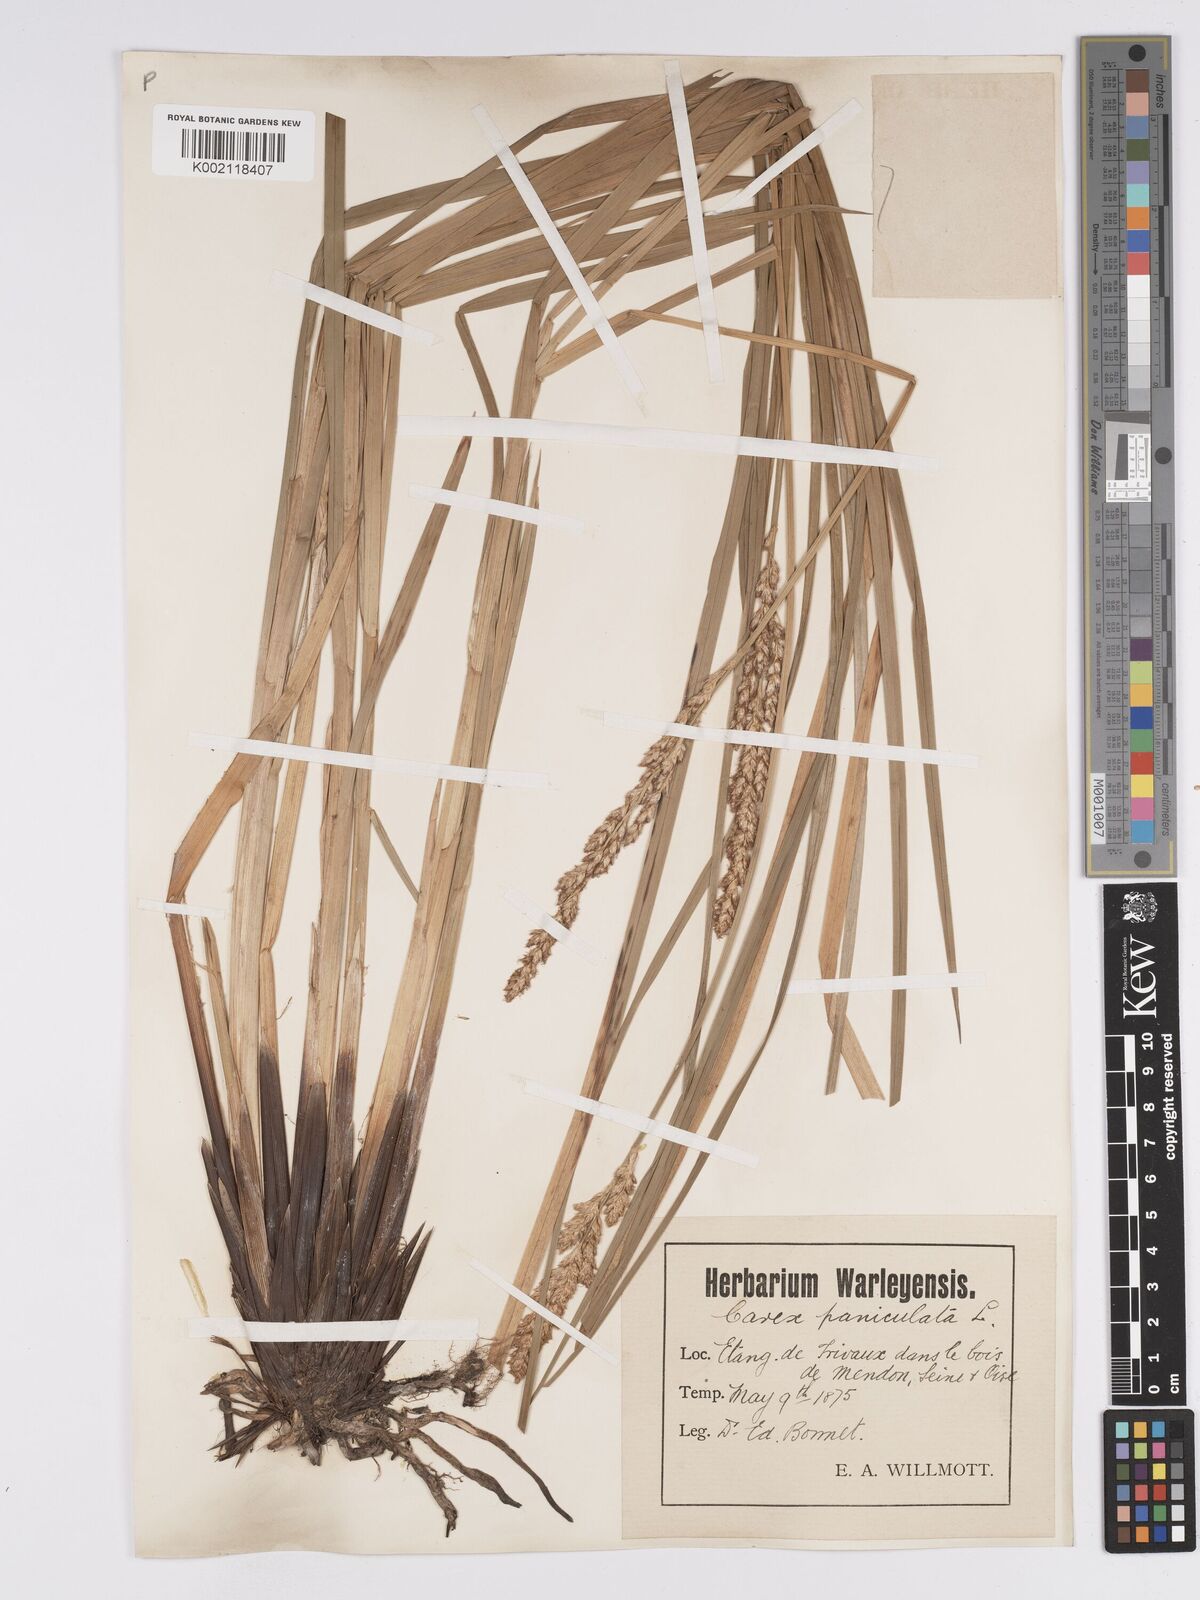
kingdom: Plantae
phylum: Tracheophyta
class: Liliopsida
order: Poales
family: Cyperaceae
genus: Carex
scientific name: Carex paniculata
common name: Greater tussock-sedge
